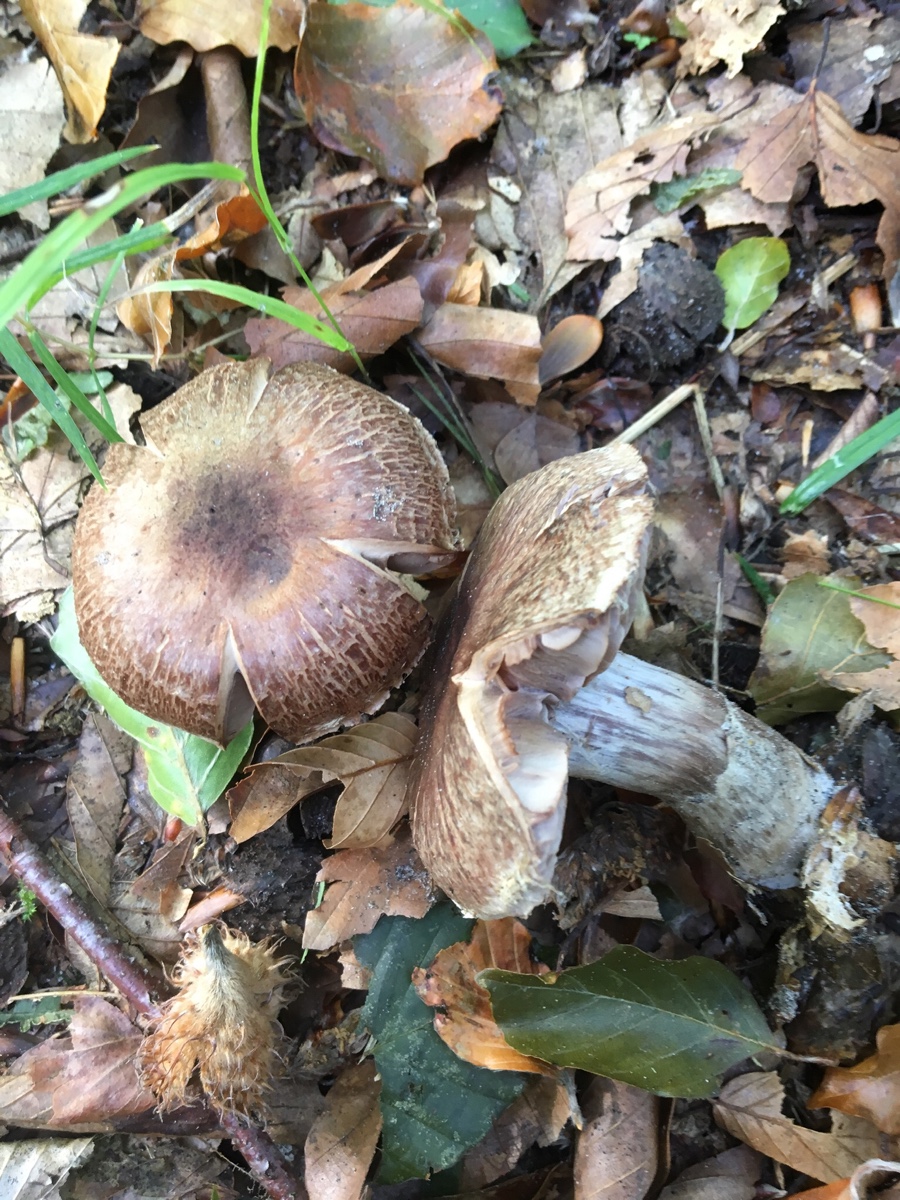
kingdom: Fungi
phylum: Basidiomycota
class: Agaricomycetes
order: Agaricales
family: Cortinariaceae
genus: Cortinarius
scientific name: Cortinarius torvus
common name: champignonagtig slørhat
